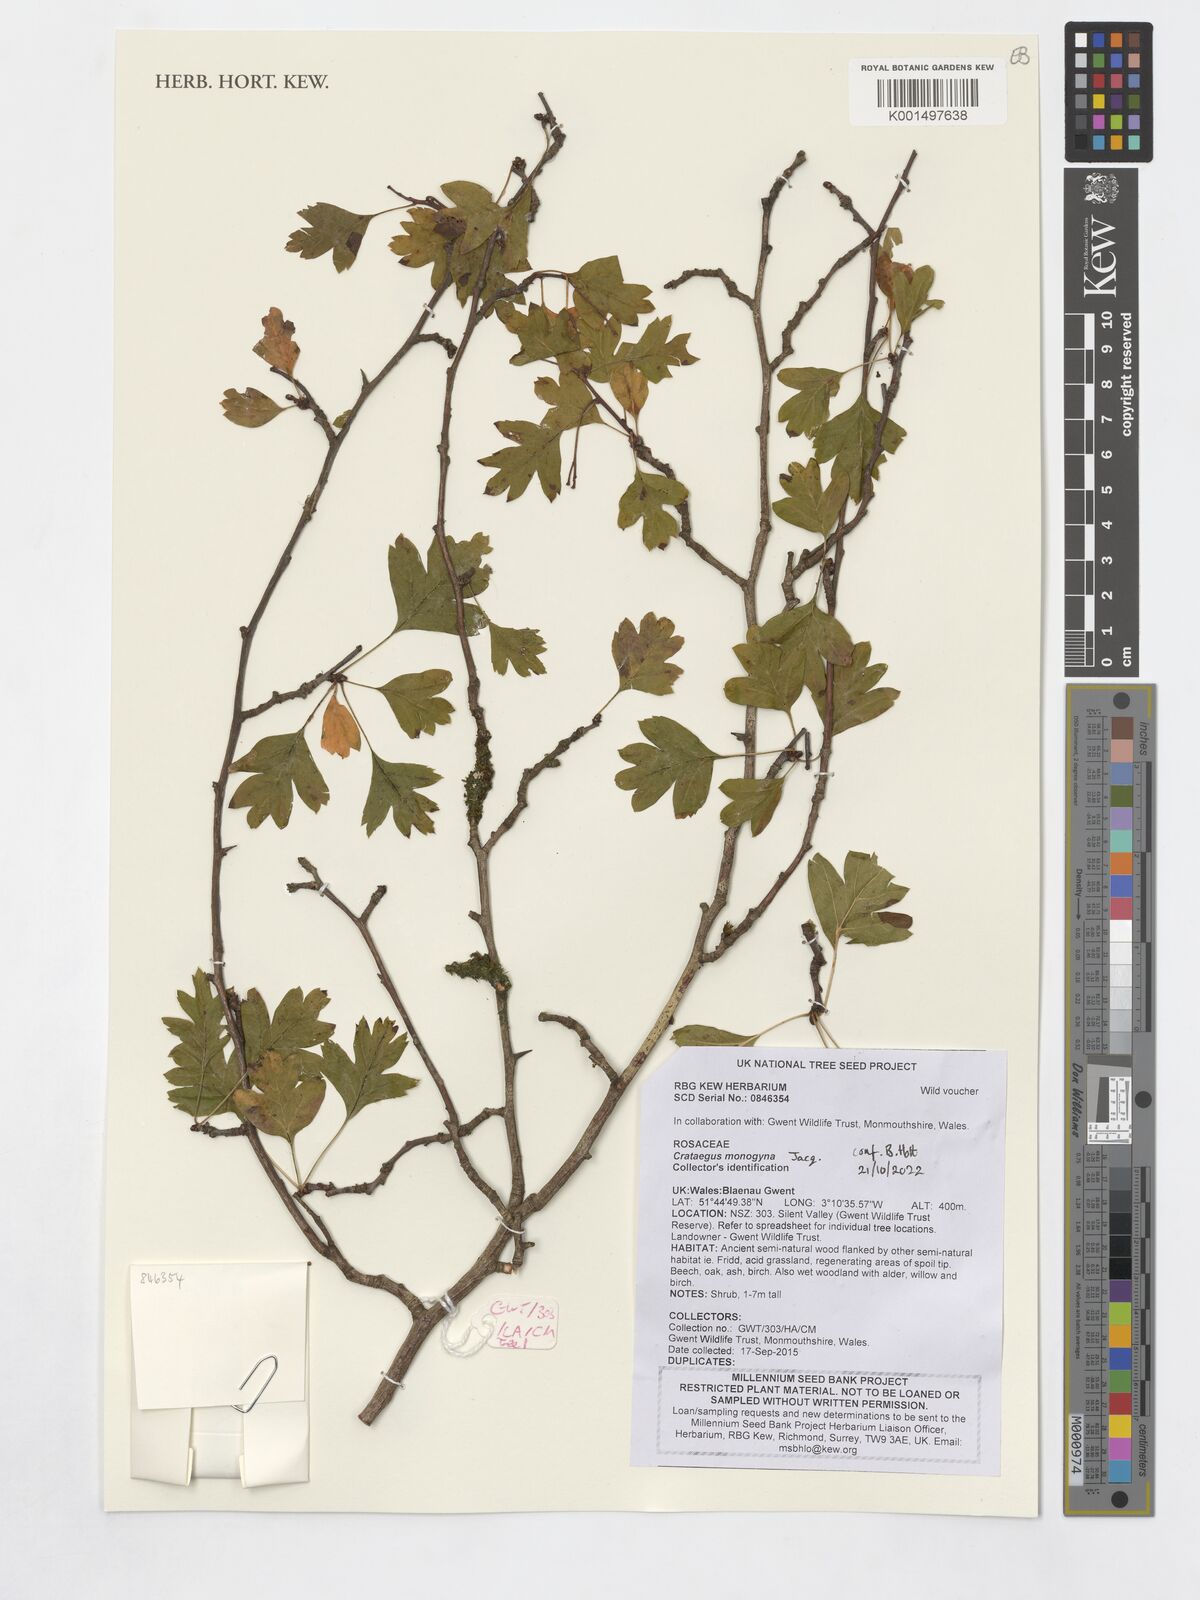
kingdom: Plantae
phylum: Tracheophyta
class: Magnoliopsida
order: Rosales
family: Rosaceae
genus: Crataegus
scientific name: Crataegus monogyna
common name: Hawthorn
